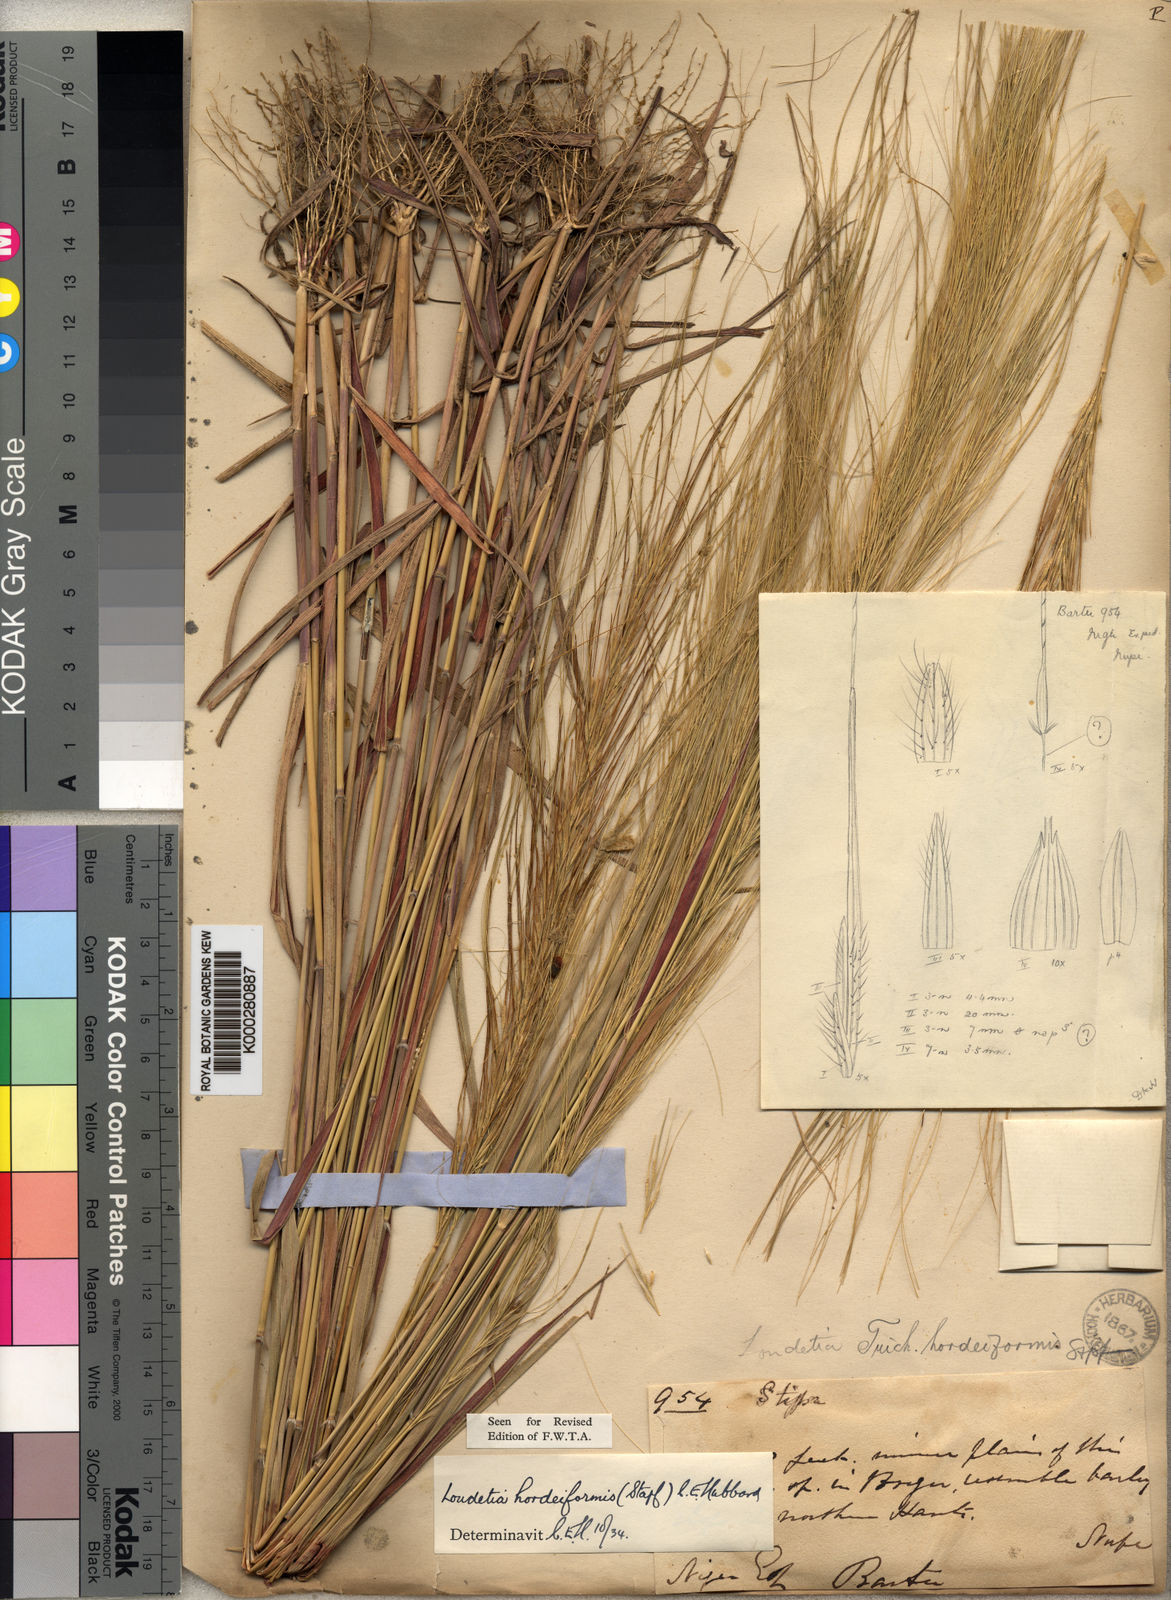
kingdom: Plantae
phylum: Tracheophyta
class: Liliopsida
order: Poales
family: Poaceae
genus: Loudetia
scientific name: Loudetia hordeiformis
